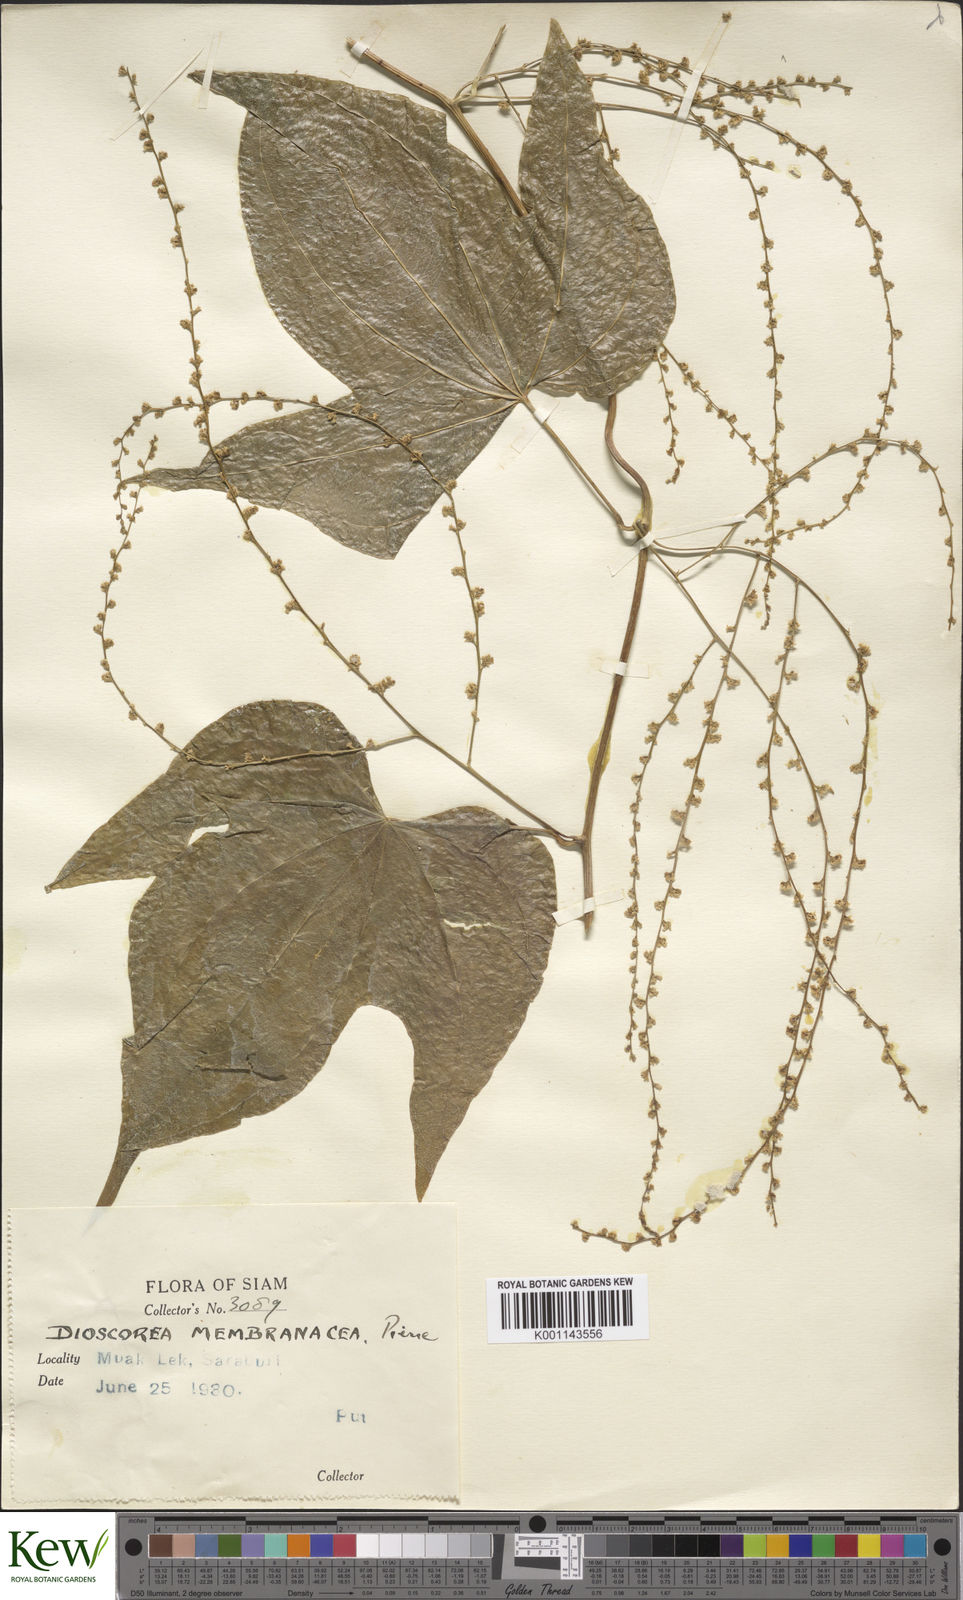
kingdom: Plantae
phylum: Tracheophyta
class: Liliopsida
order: Dioscoreales
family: Dioscoreaceae
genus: Dioscorea
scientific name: Dioscorea membranacea
